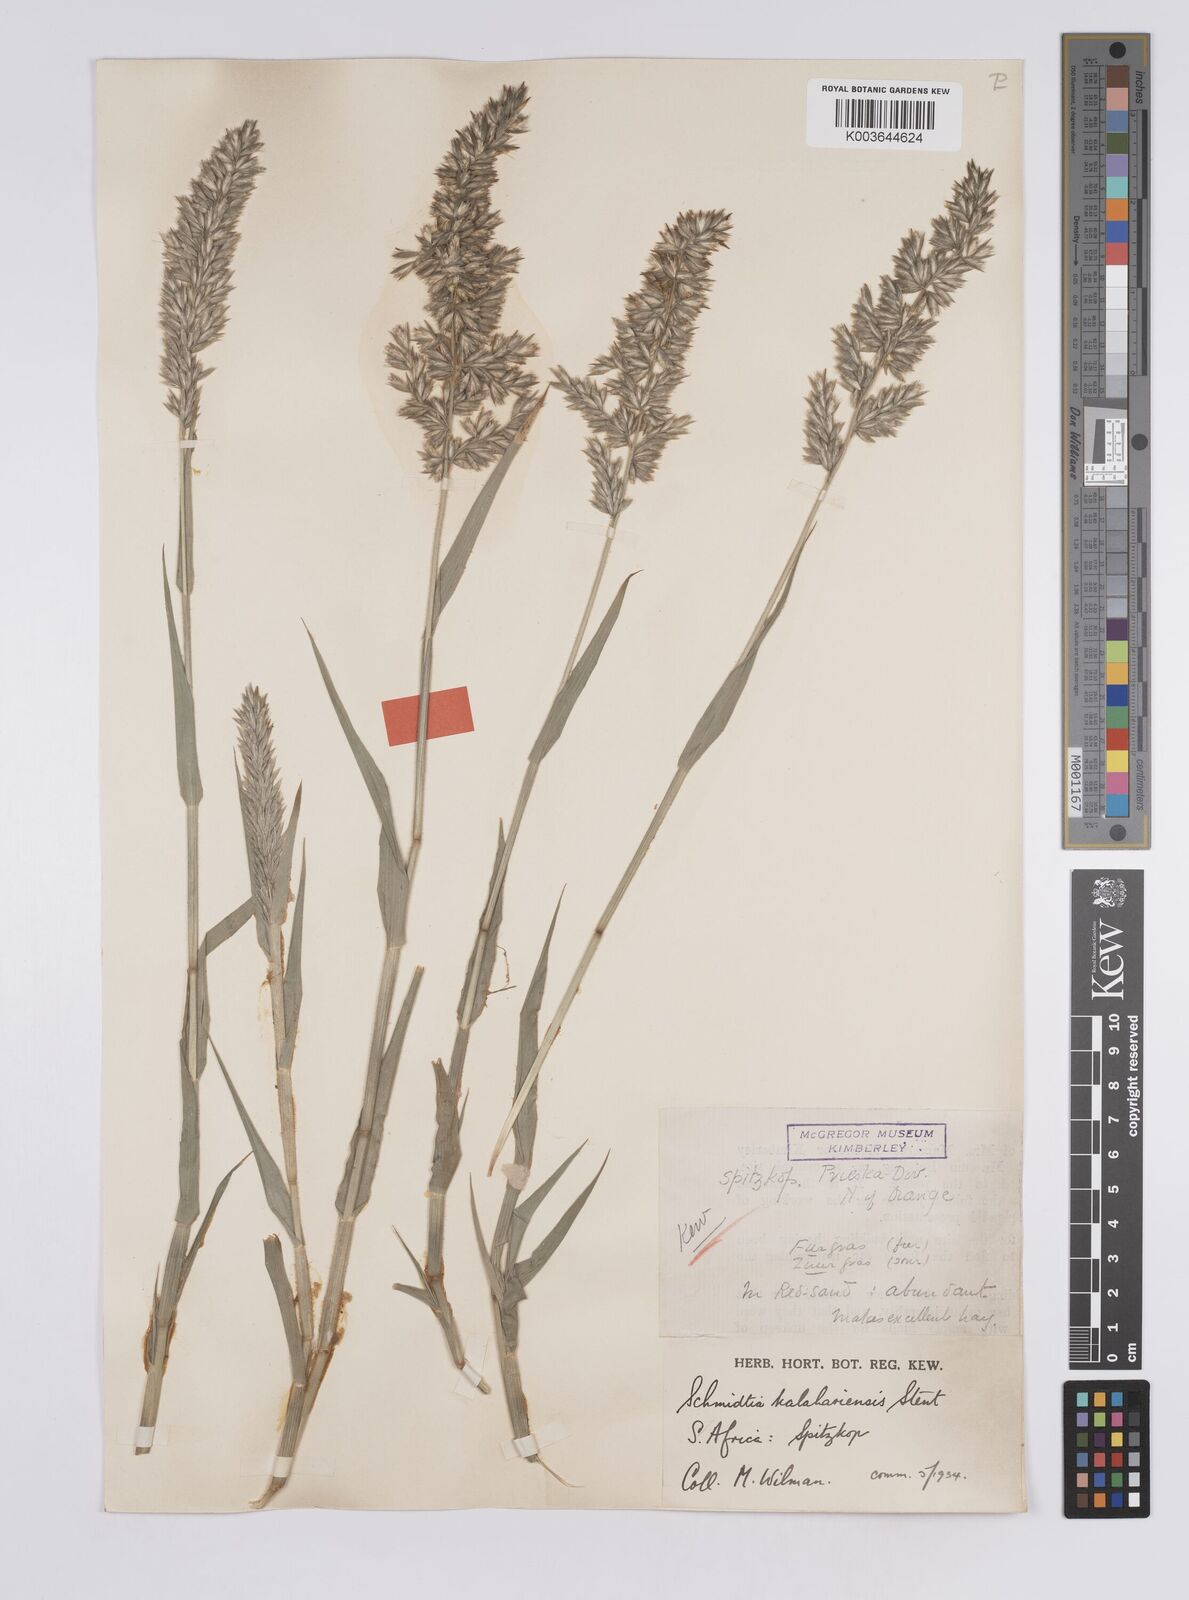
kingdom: Plantae
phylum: Tracheophyta
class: Liliopsida
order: Poales
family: Poaceae
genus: Schmidtia
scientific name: Schmidtia kalahariensis
